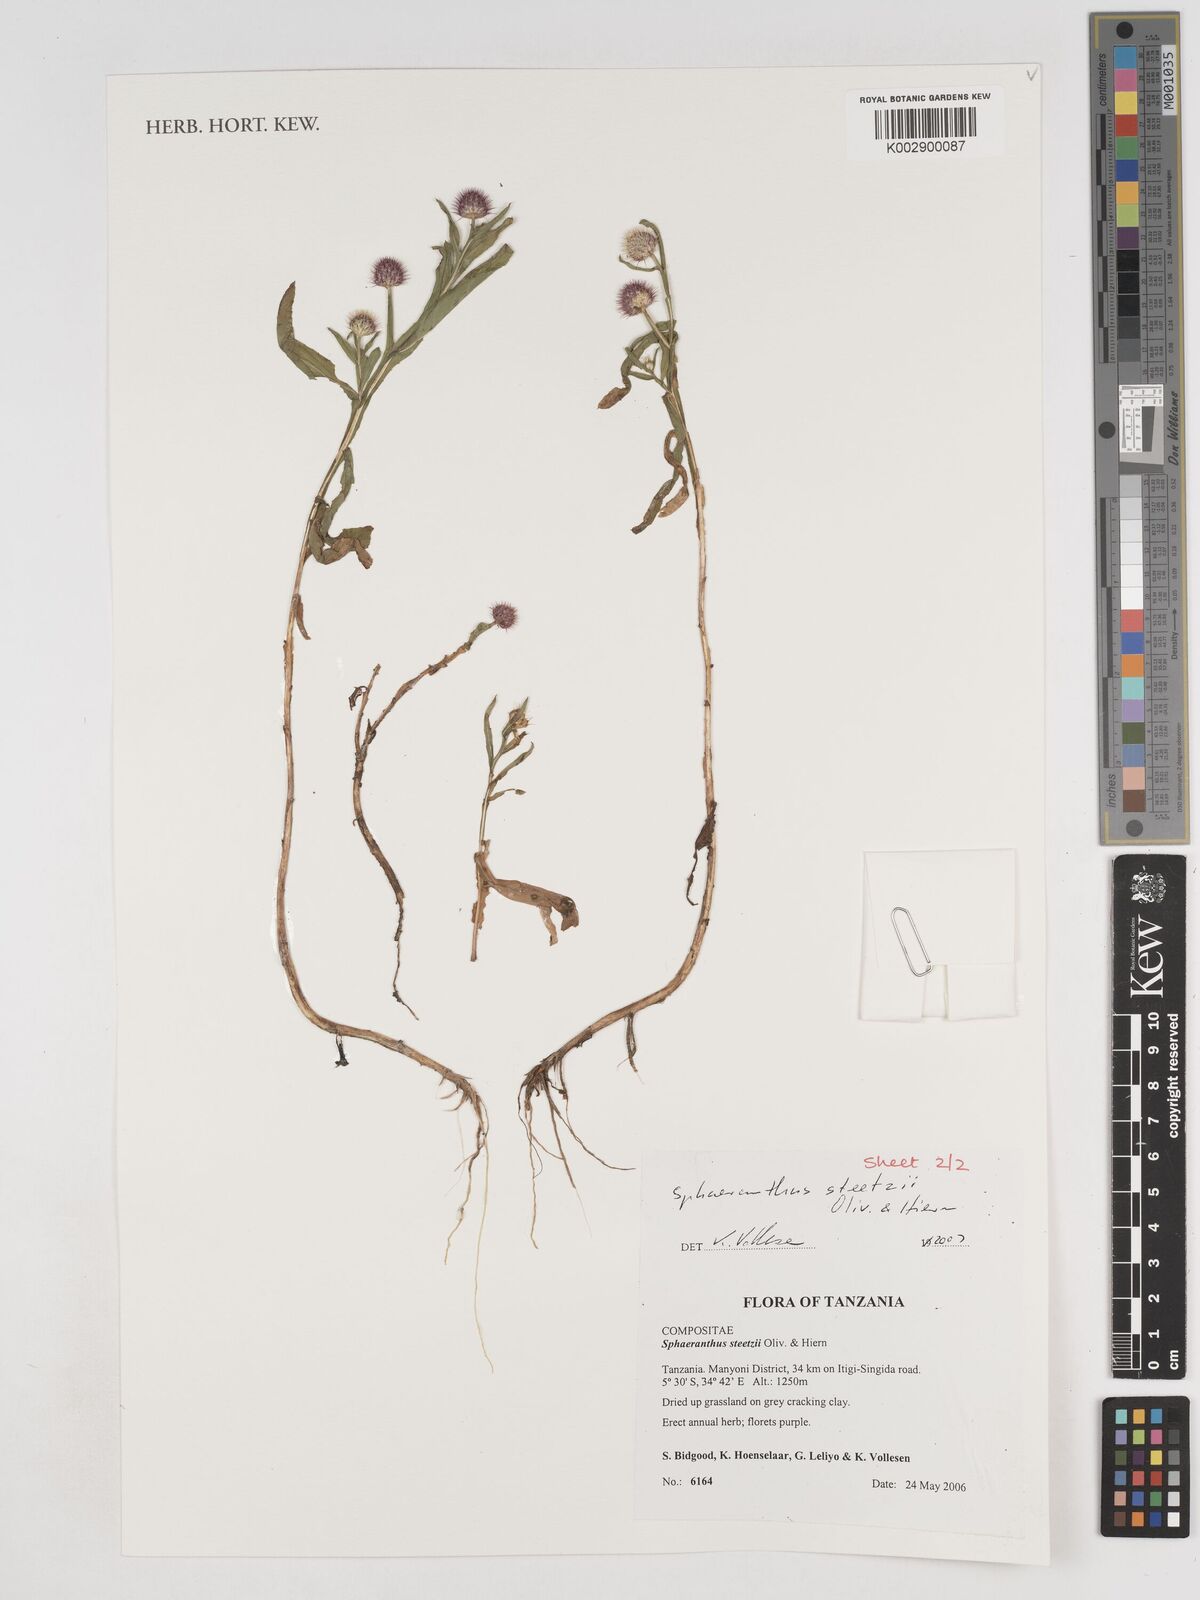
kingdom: Plantae
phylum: Tracheophyta
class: Magnoliopsida
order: Asterales
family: Asteraceae
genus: Sphaeranthus
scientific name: Sphaeranthus steetzii
